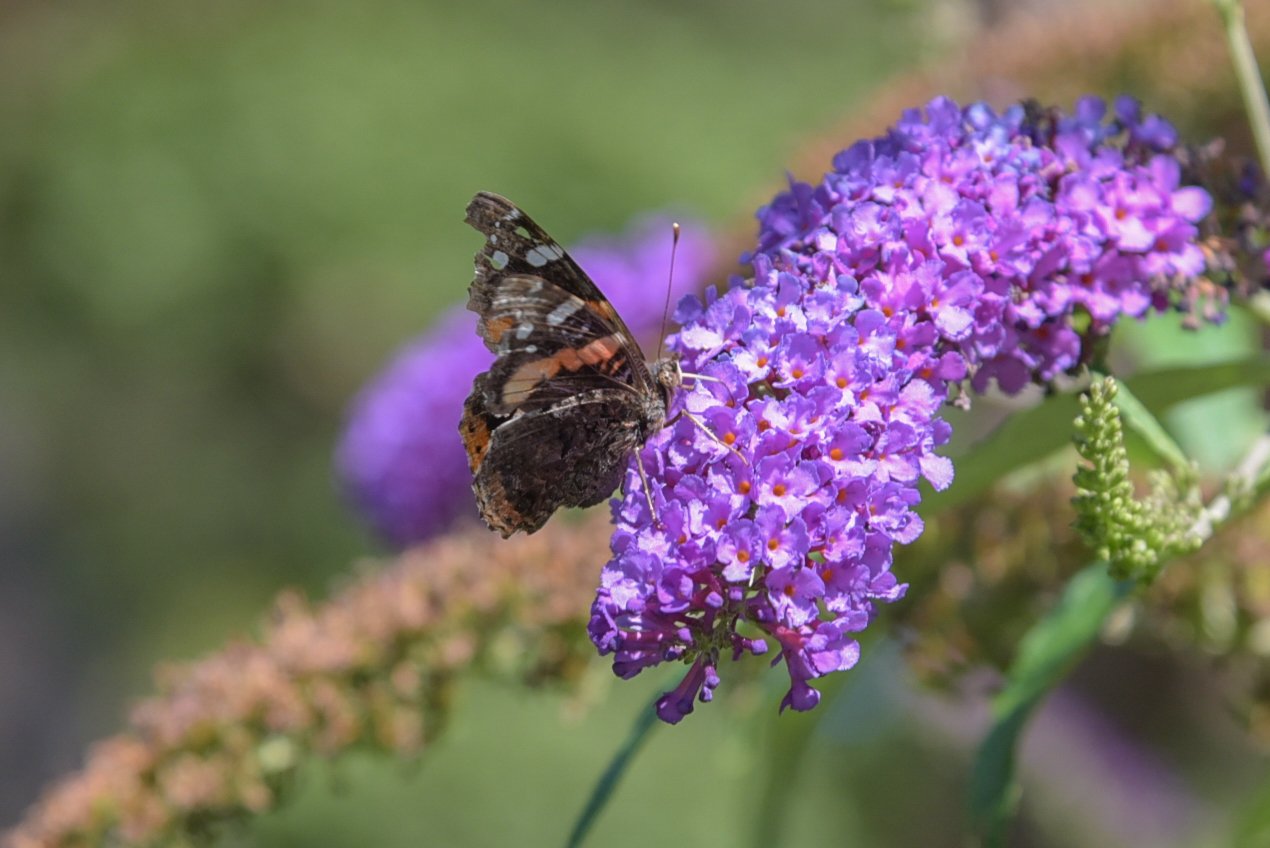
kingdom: Animalia
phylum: Arthropoda
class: Insecta
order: Lepidoptera
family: Nymphalidae
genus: Vanessa
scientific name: Vanessa atalanta
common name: Red Admiral
